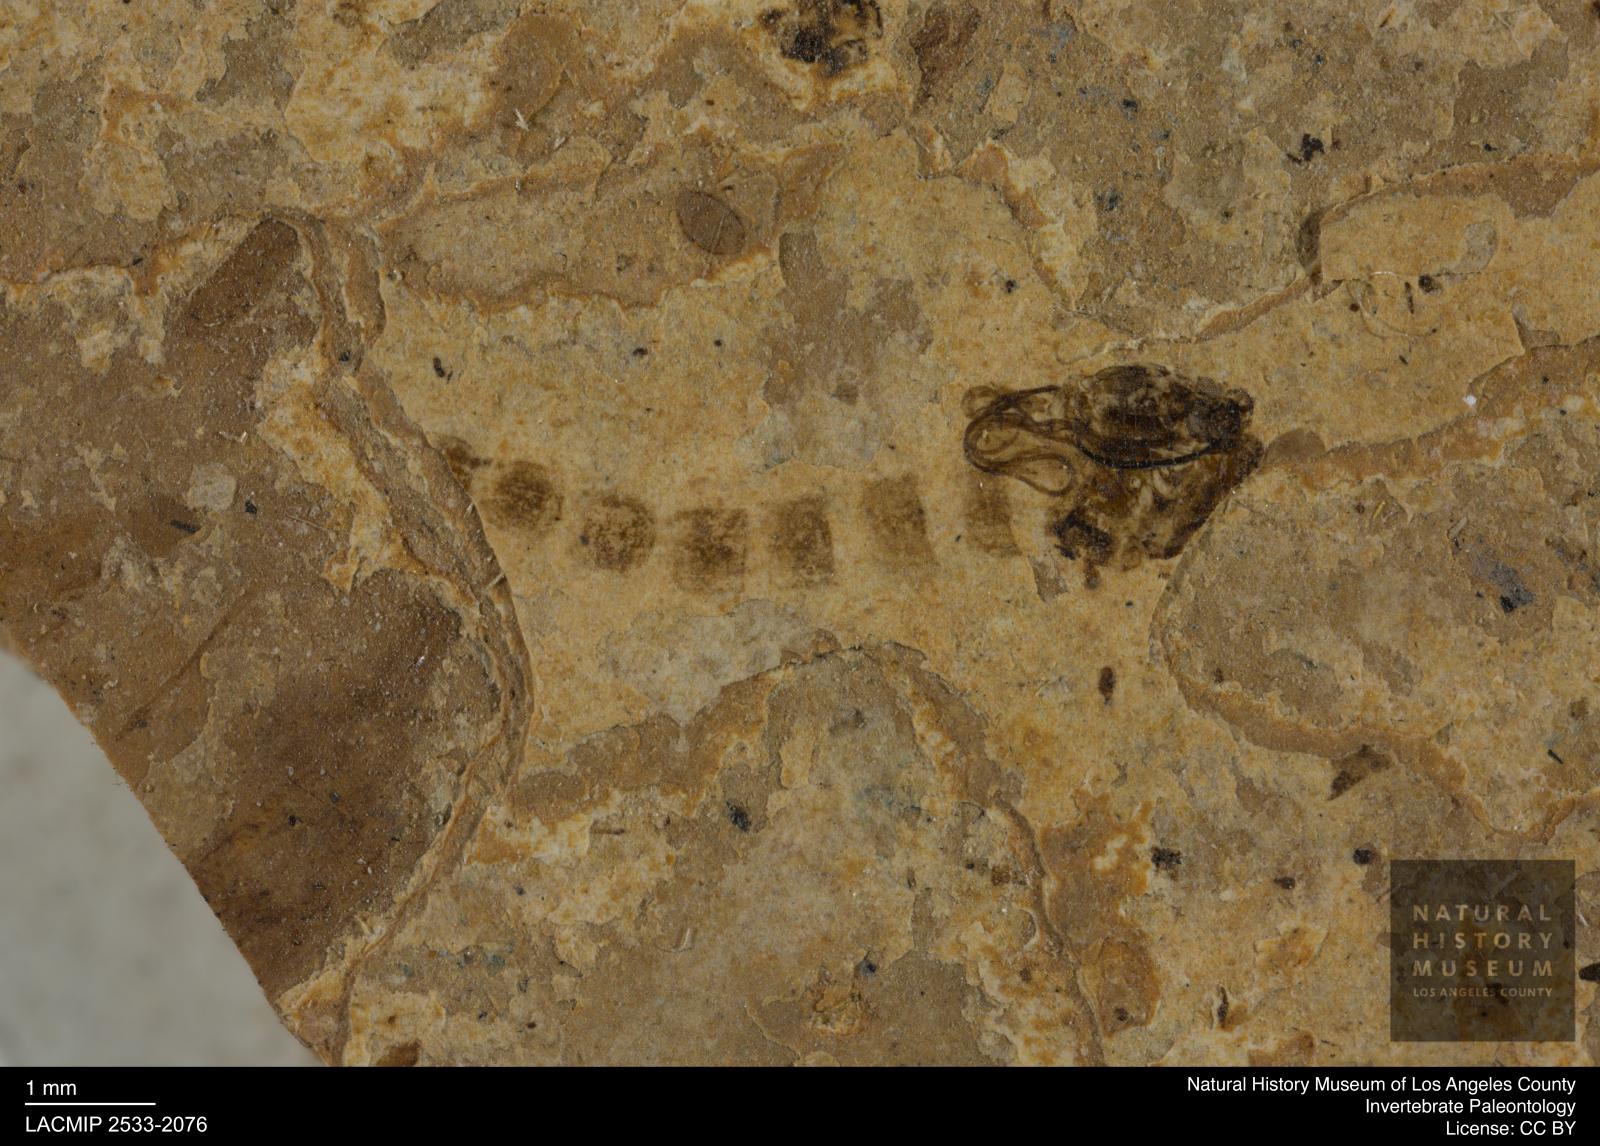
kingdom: Animalia
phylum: Arthropoda
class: Insecta
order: Diptera
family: Chironomidae
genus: Pelopiina
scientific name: Pelopiina
